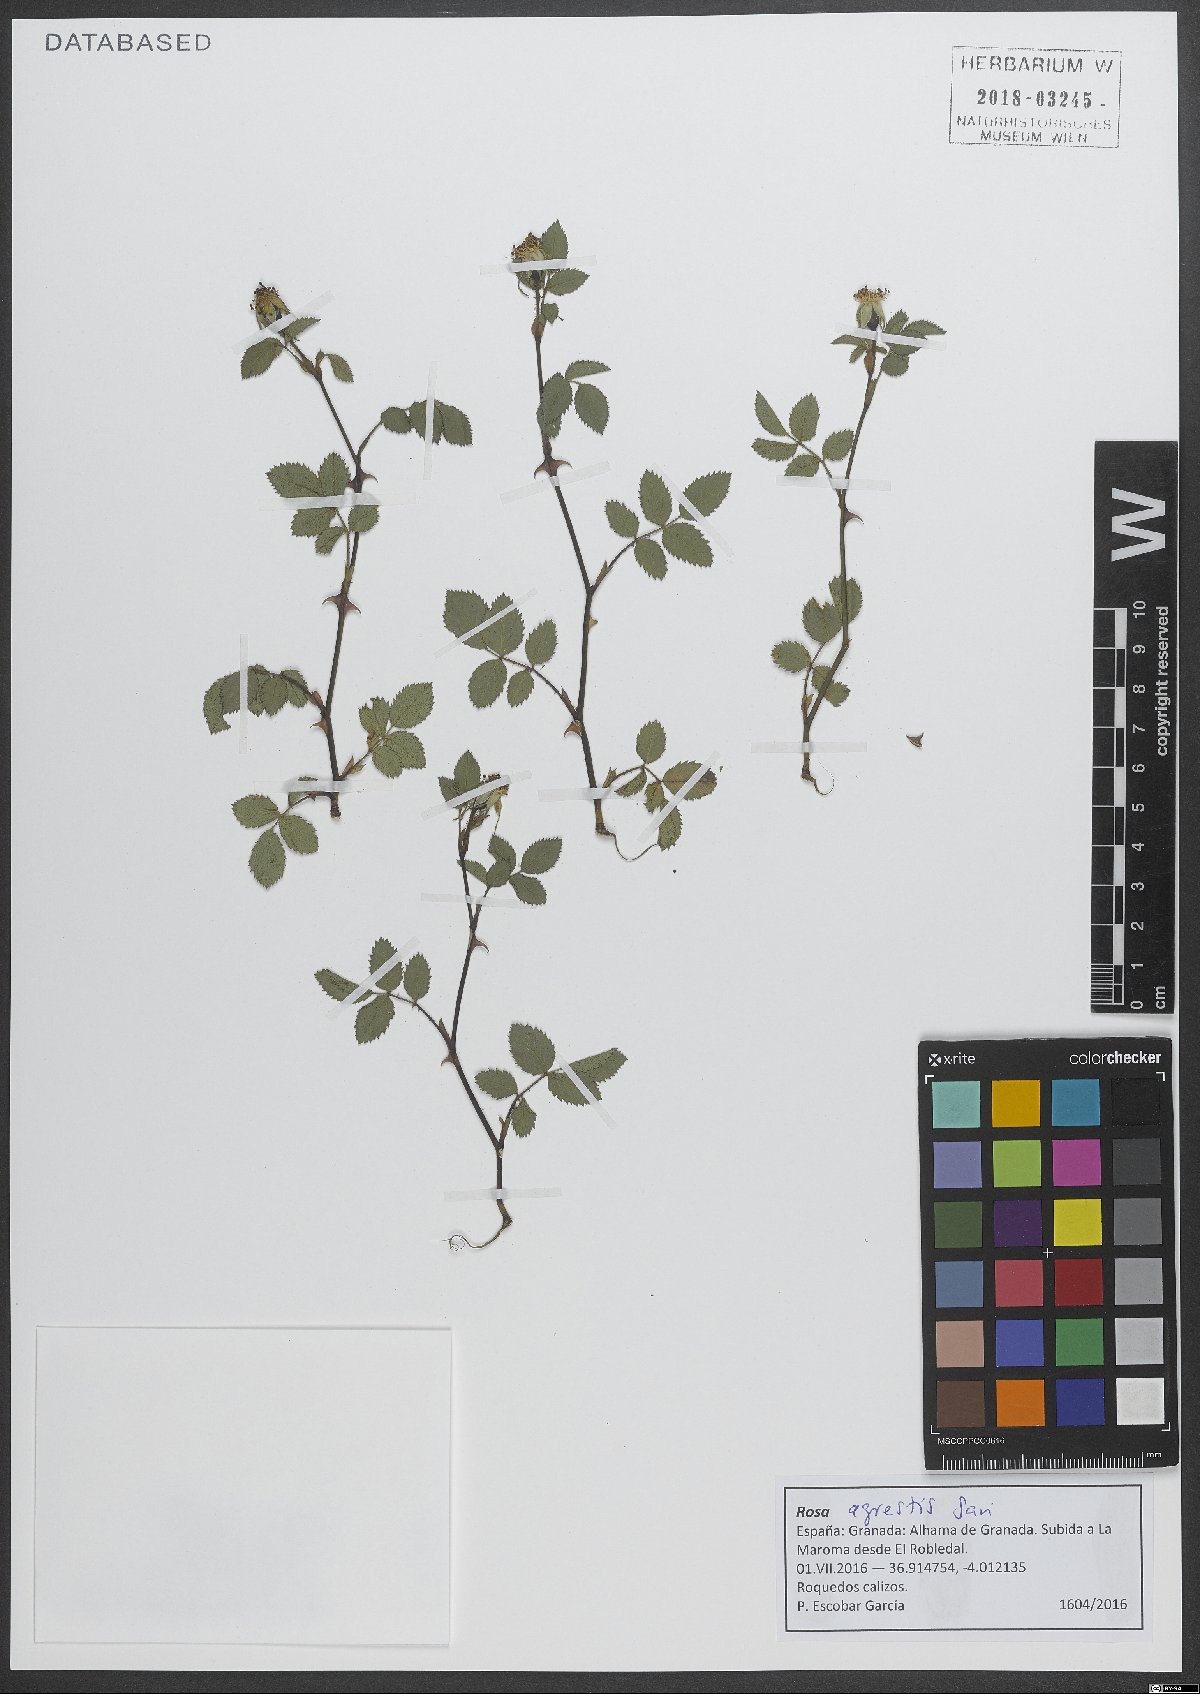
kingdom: Plantae
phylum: Tracheophyta
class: Magnoliopsida
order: Rosales
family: Rosaceae
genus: Rosa
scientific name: Rosa agrestis
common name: Fieldbriar
